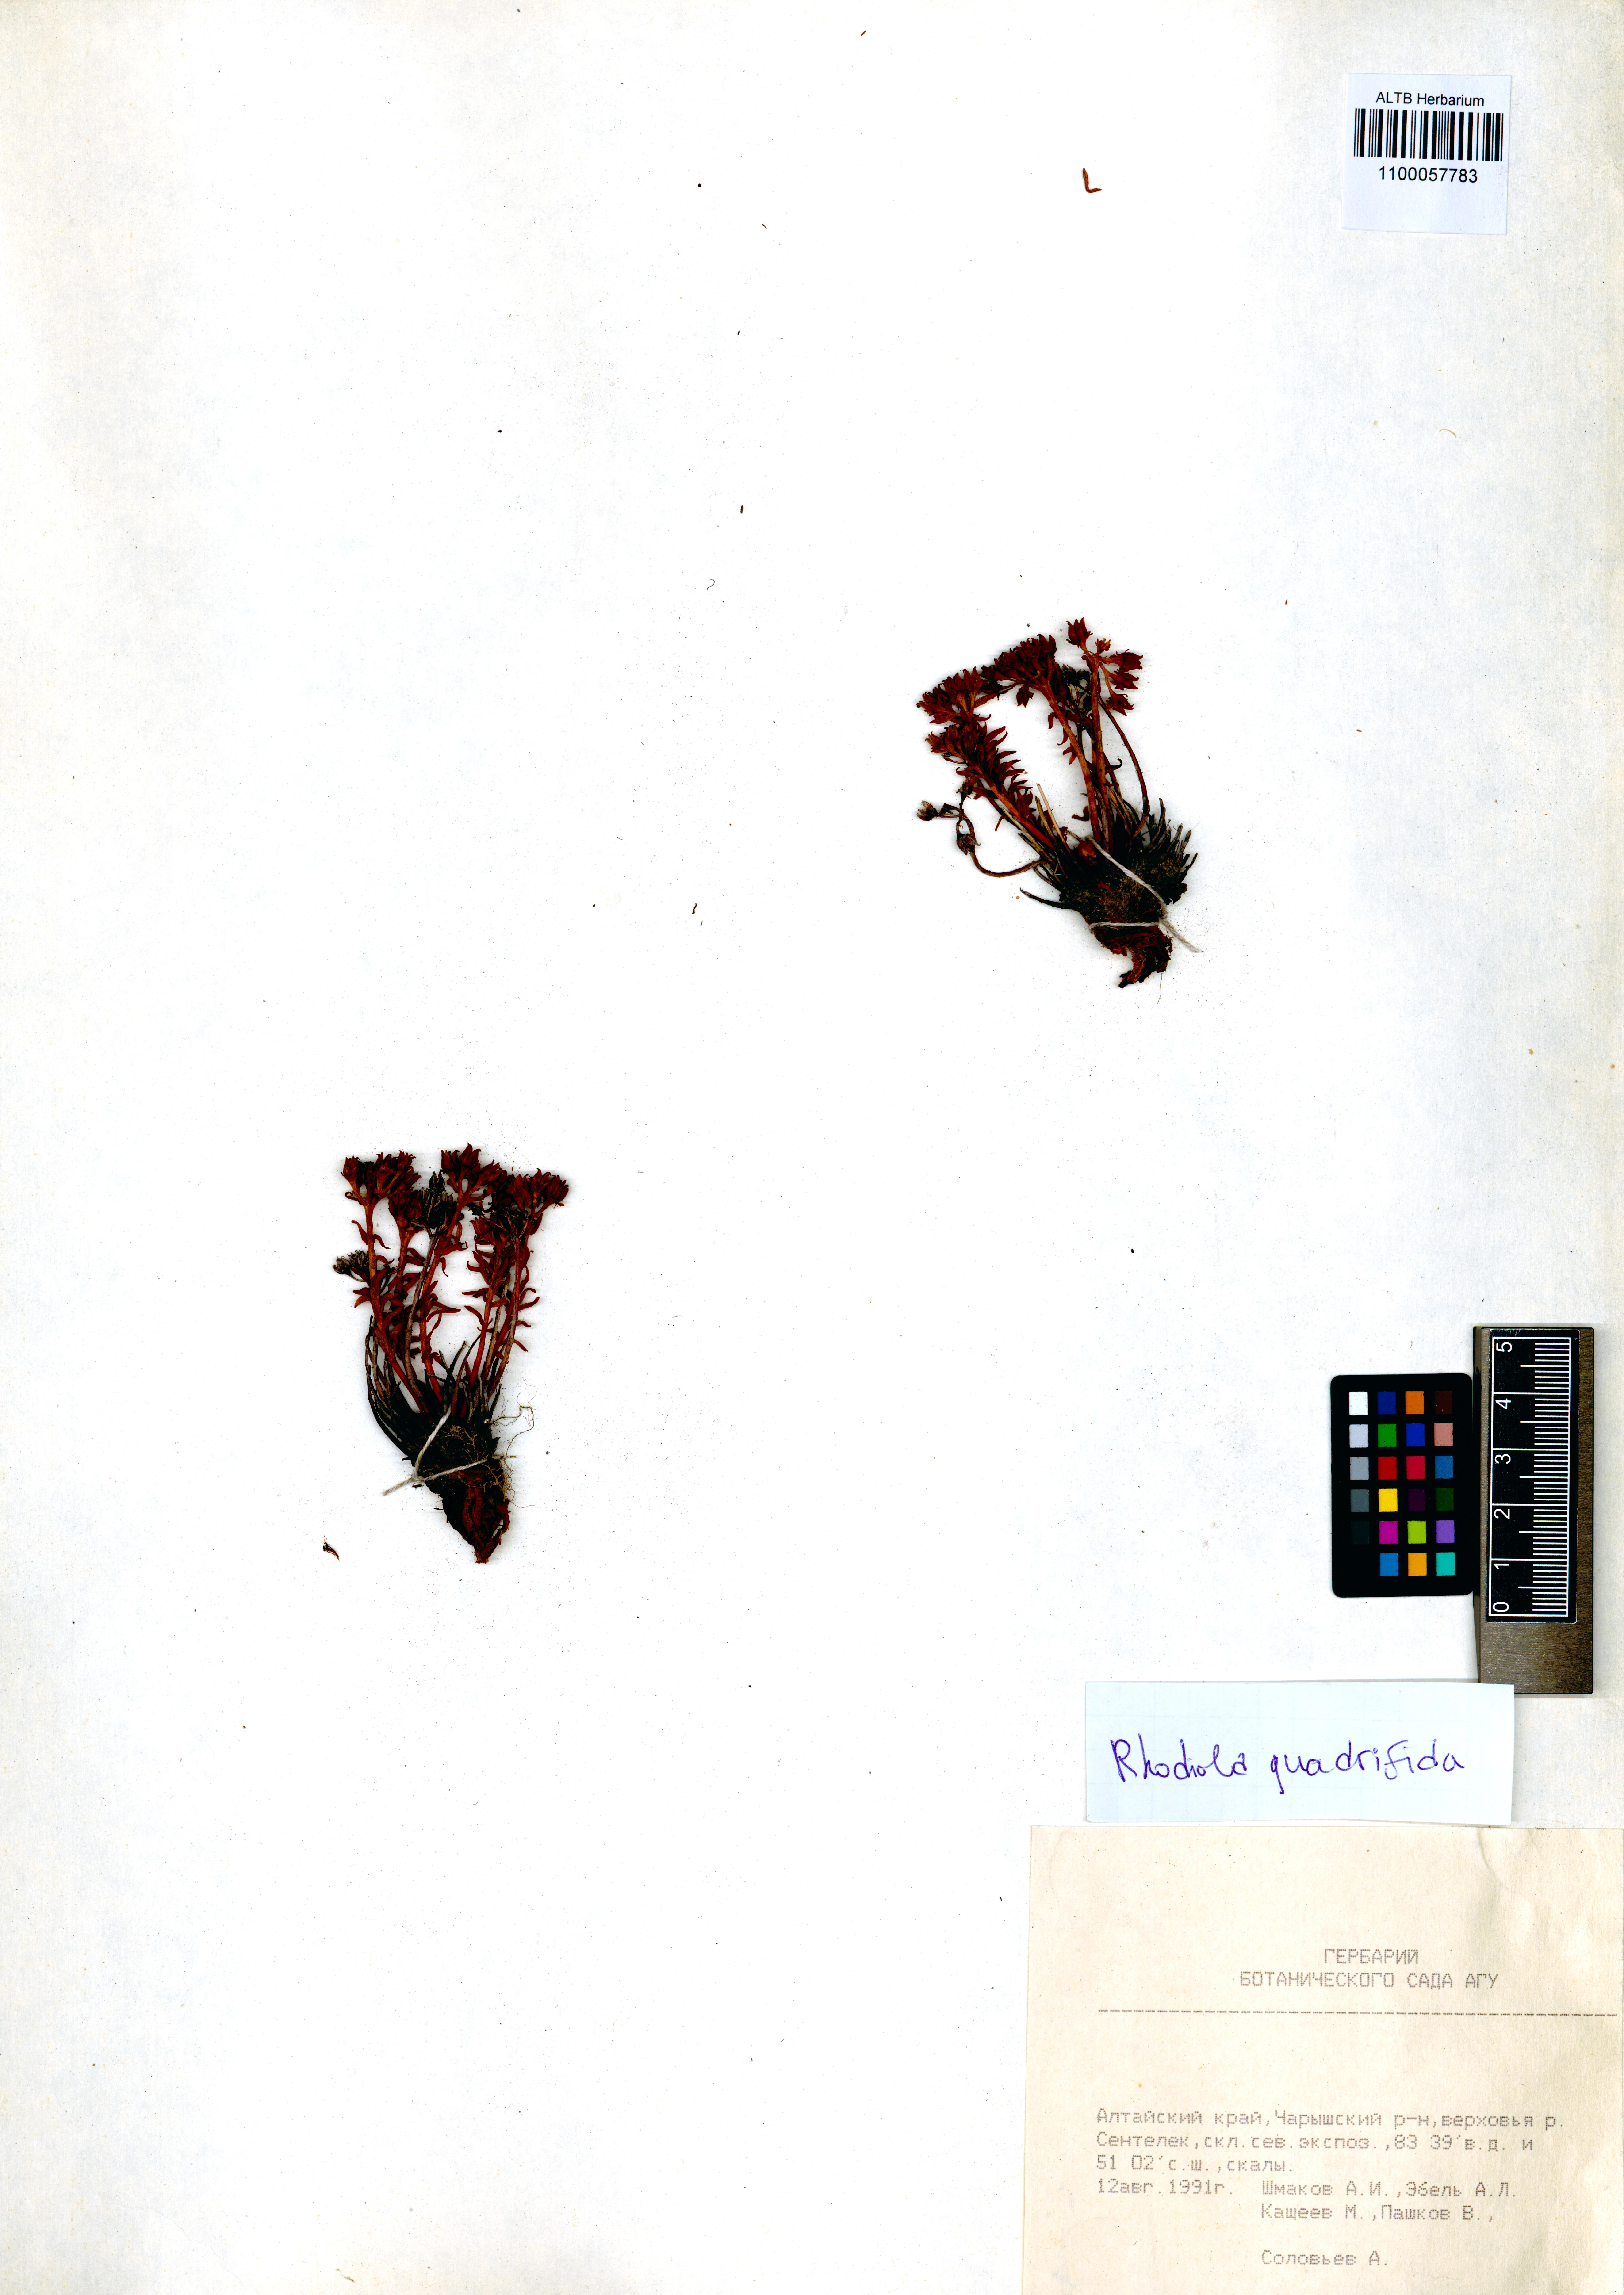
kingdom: Plantae
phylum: Tracheophyta
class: Magnoliopsida
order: Saxifragales
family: Crassulaceae
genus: Rhodiola
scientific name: Rhodiola quadrifida
